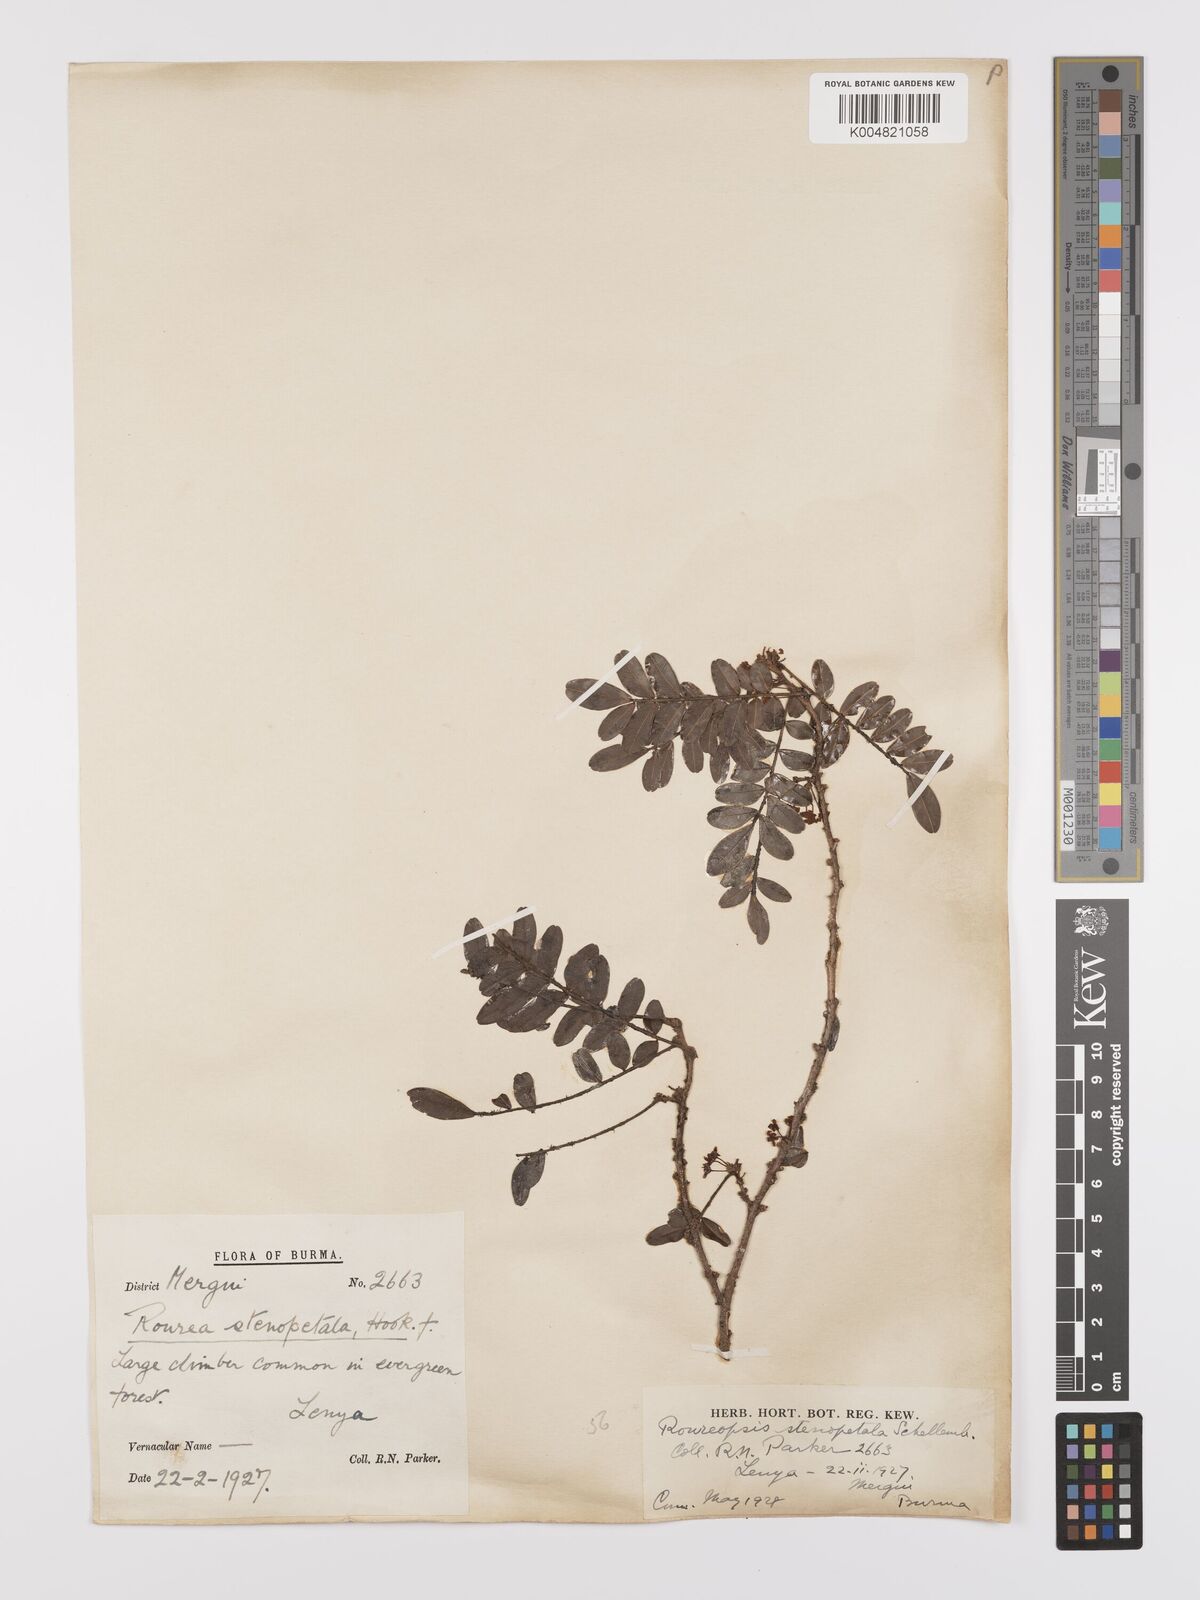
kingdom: Plantae
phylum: Tracheophyta
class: Magnoliopsida
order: Oxalidales
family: Connaraceae
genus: Rourea
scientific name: Rourea stenopetala
